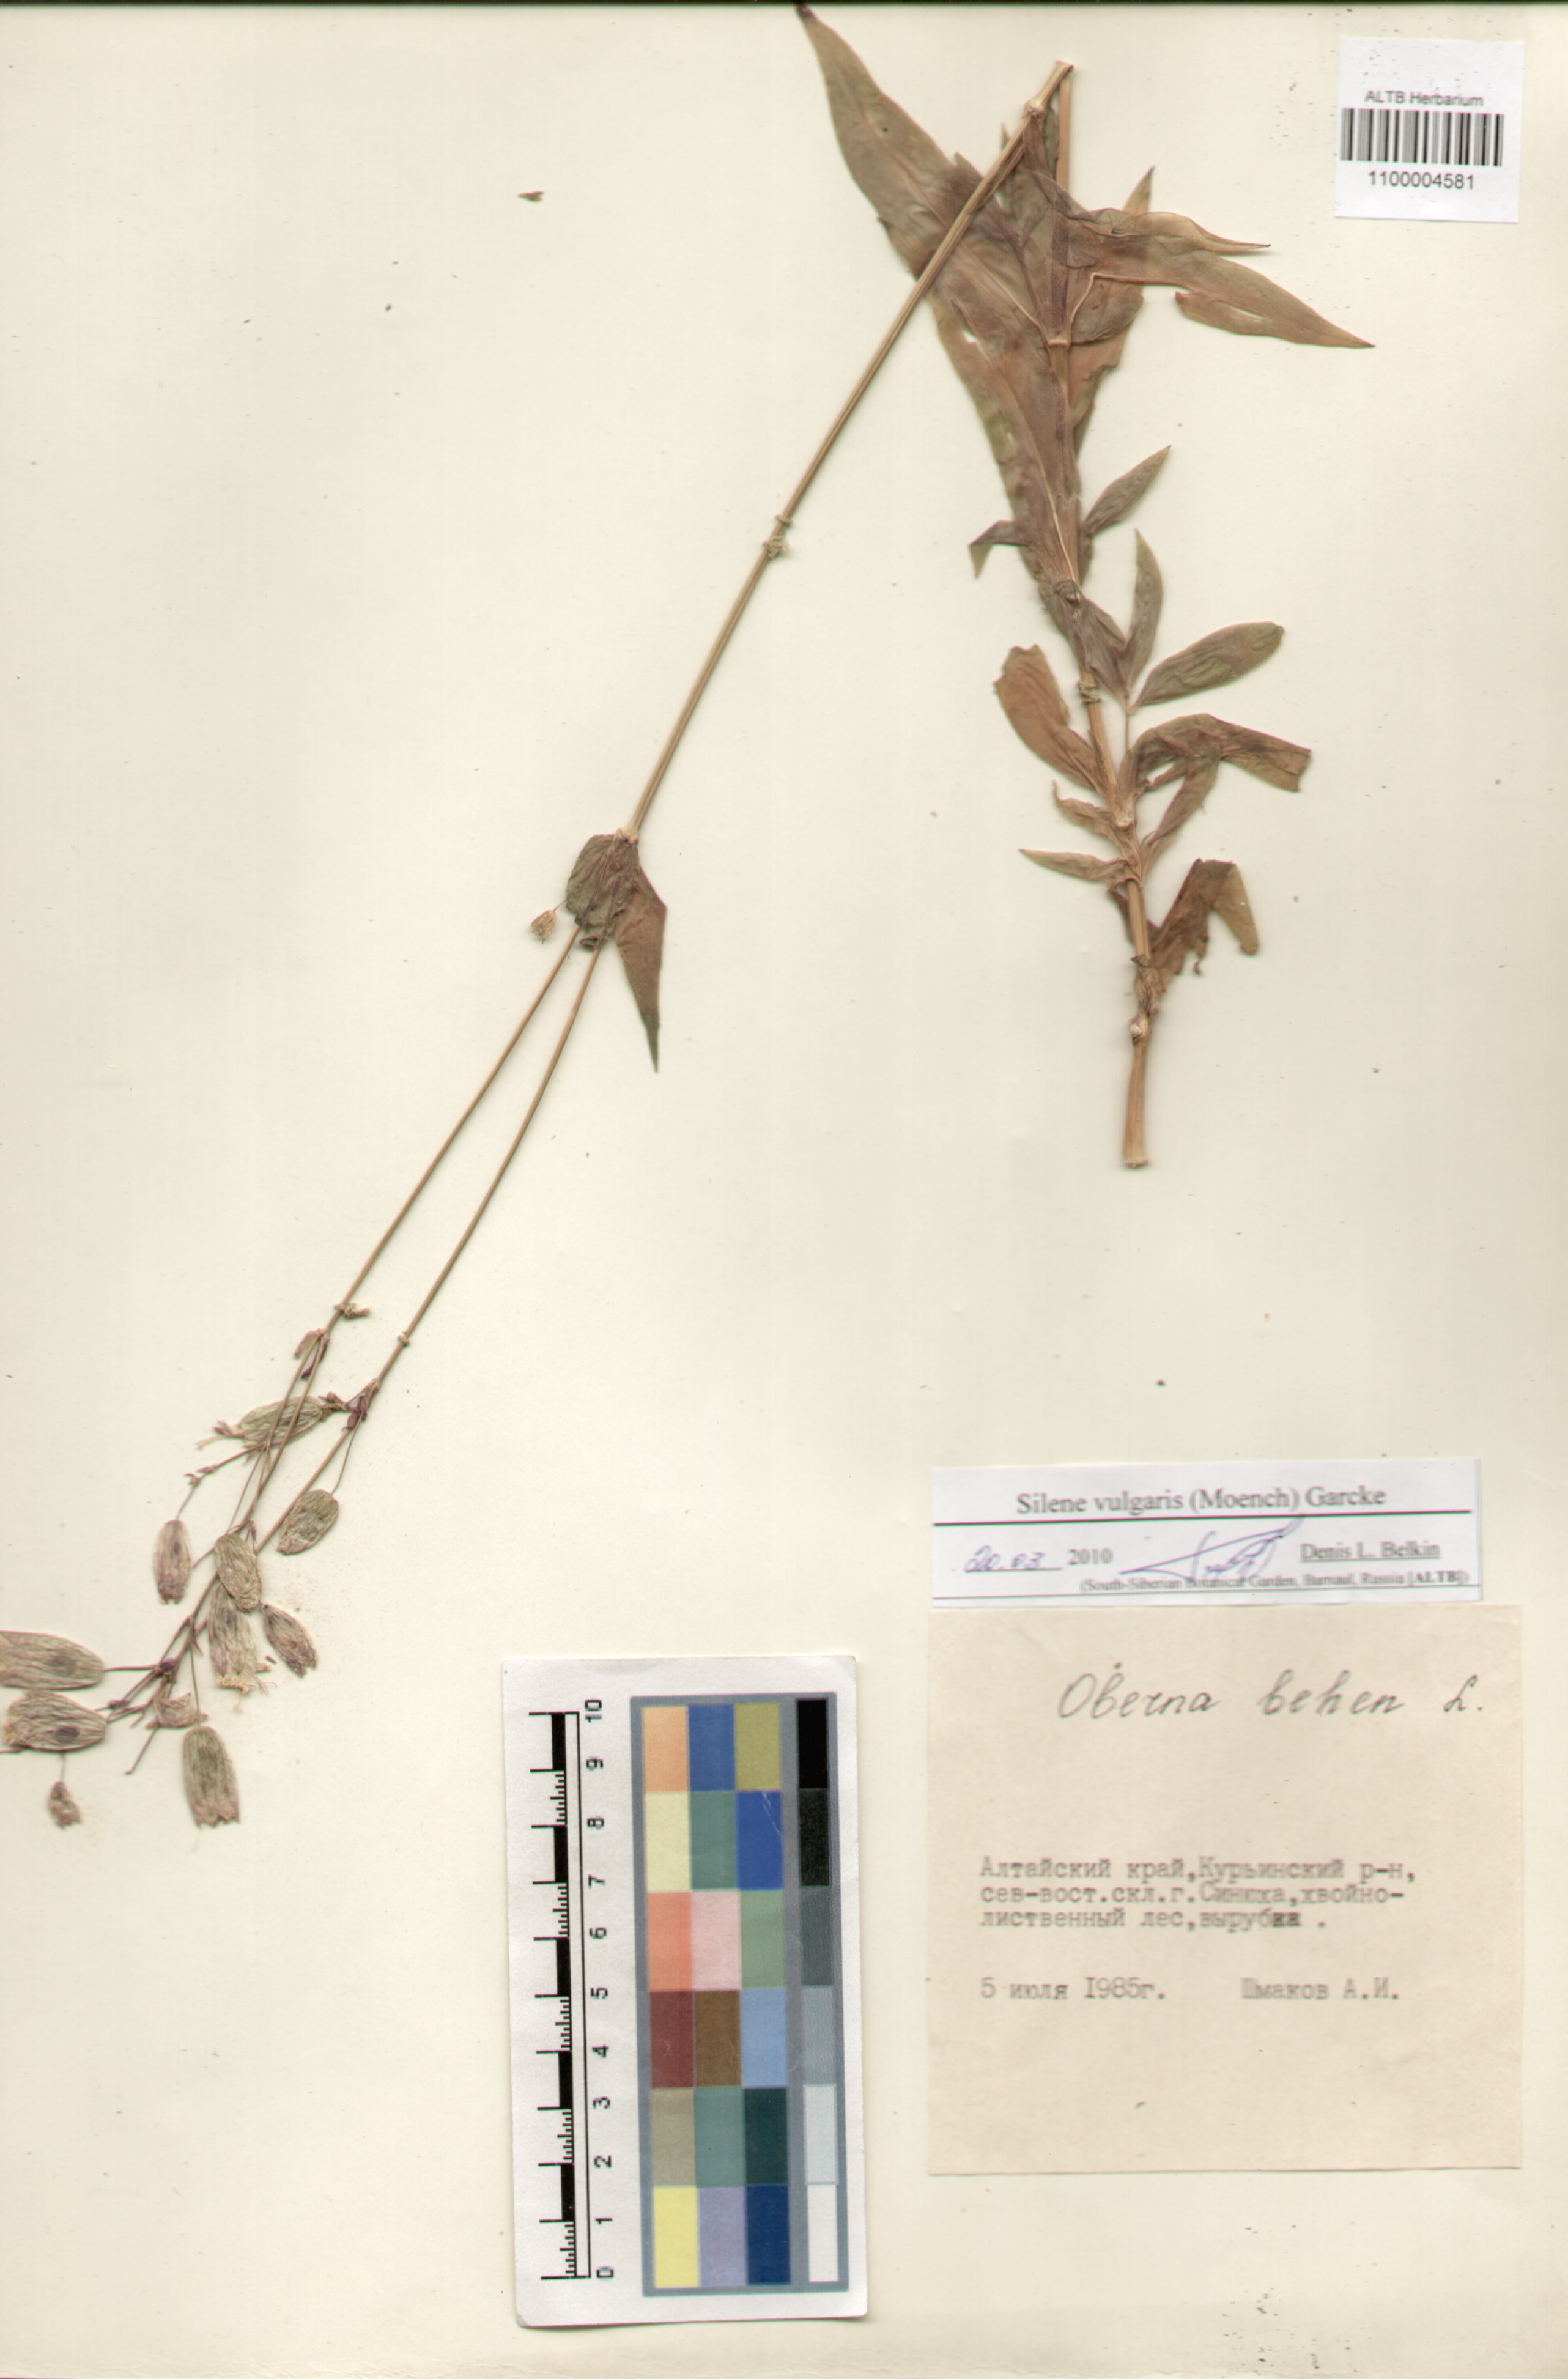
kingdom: Plantae
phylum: Tracheophyta
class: Magnoliopsida
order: Caryophyllales
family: Caryophyllaceae
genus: Silene
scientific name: Silene vulgaris
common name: Bladder campion
